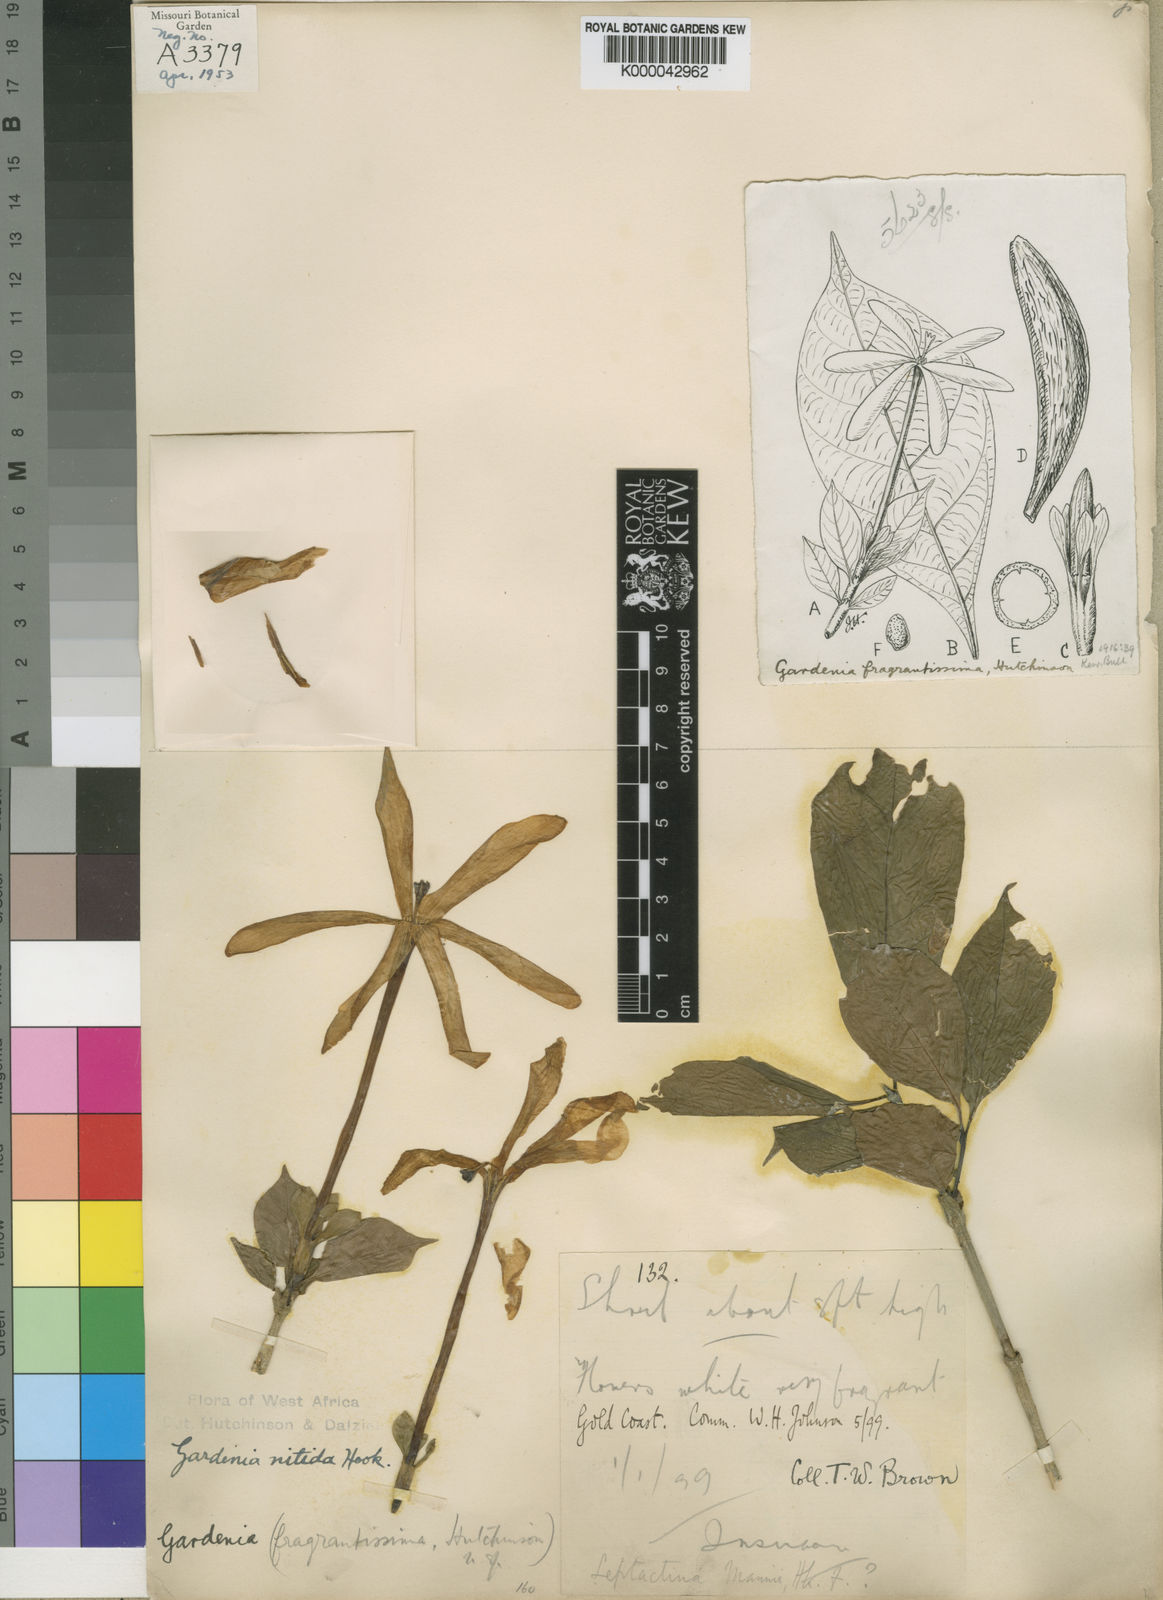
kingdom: Plantae
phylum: Tracheophyta
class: Magnoliopsida
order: Gentianales
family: Rubiaceae
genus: Gardenia
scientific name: Gardenia nitida
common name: Glossy-leaved gardenia
